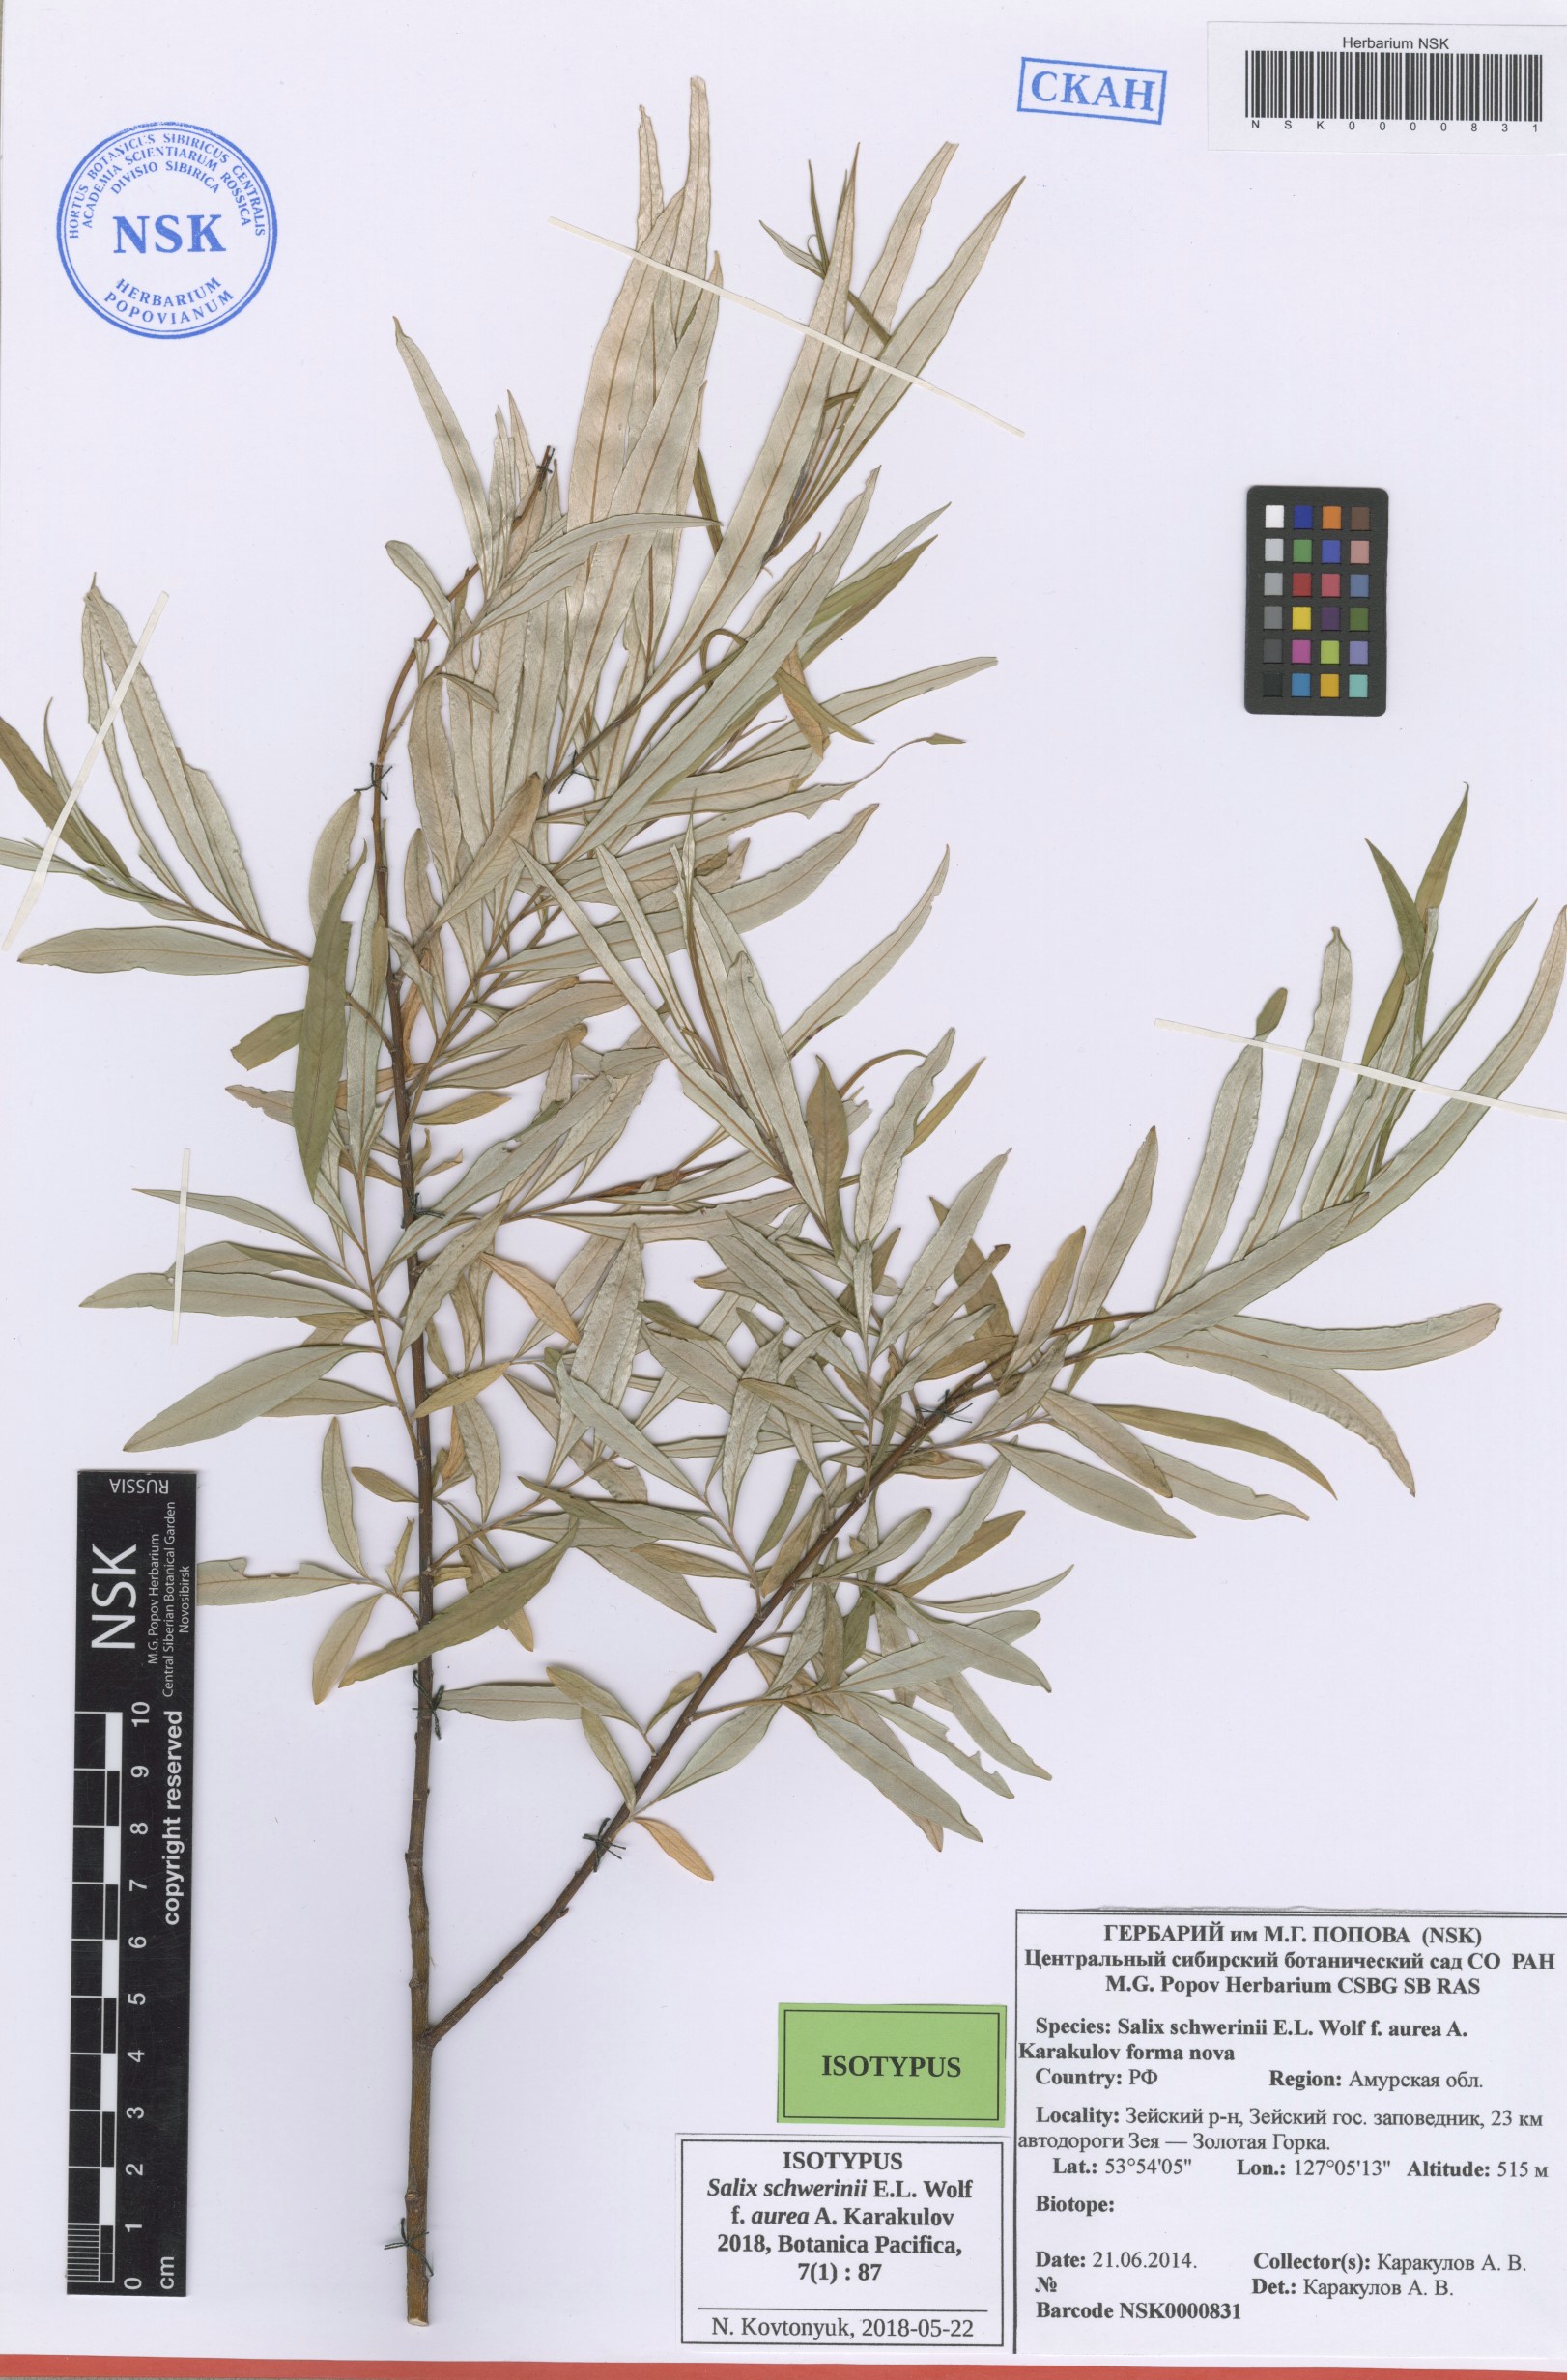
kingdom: Plantae
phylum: Tracheophyta
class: Magnoliopsida
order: Malpighiales
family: Salicaceae
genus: Salix
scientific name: Salix schwerinii
